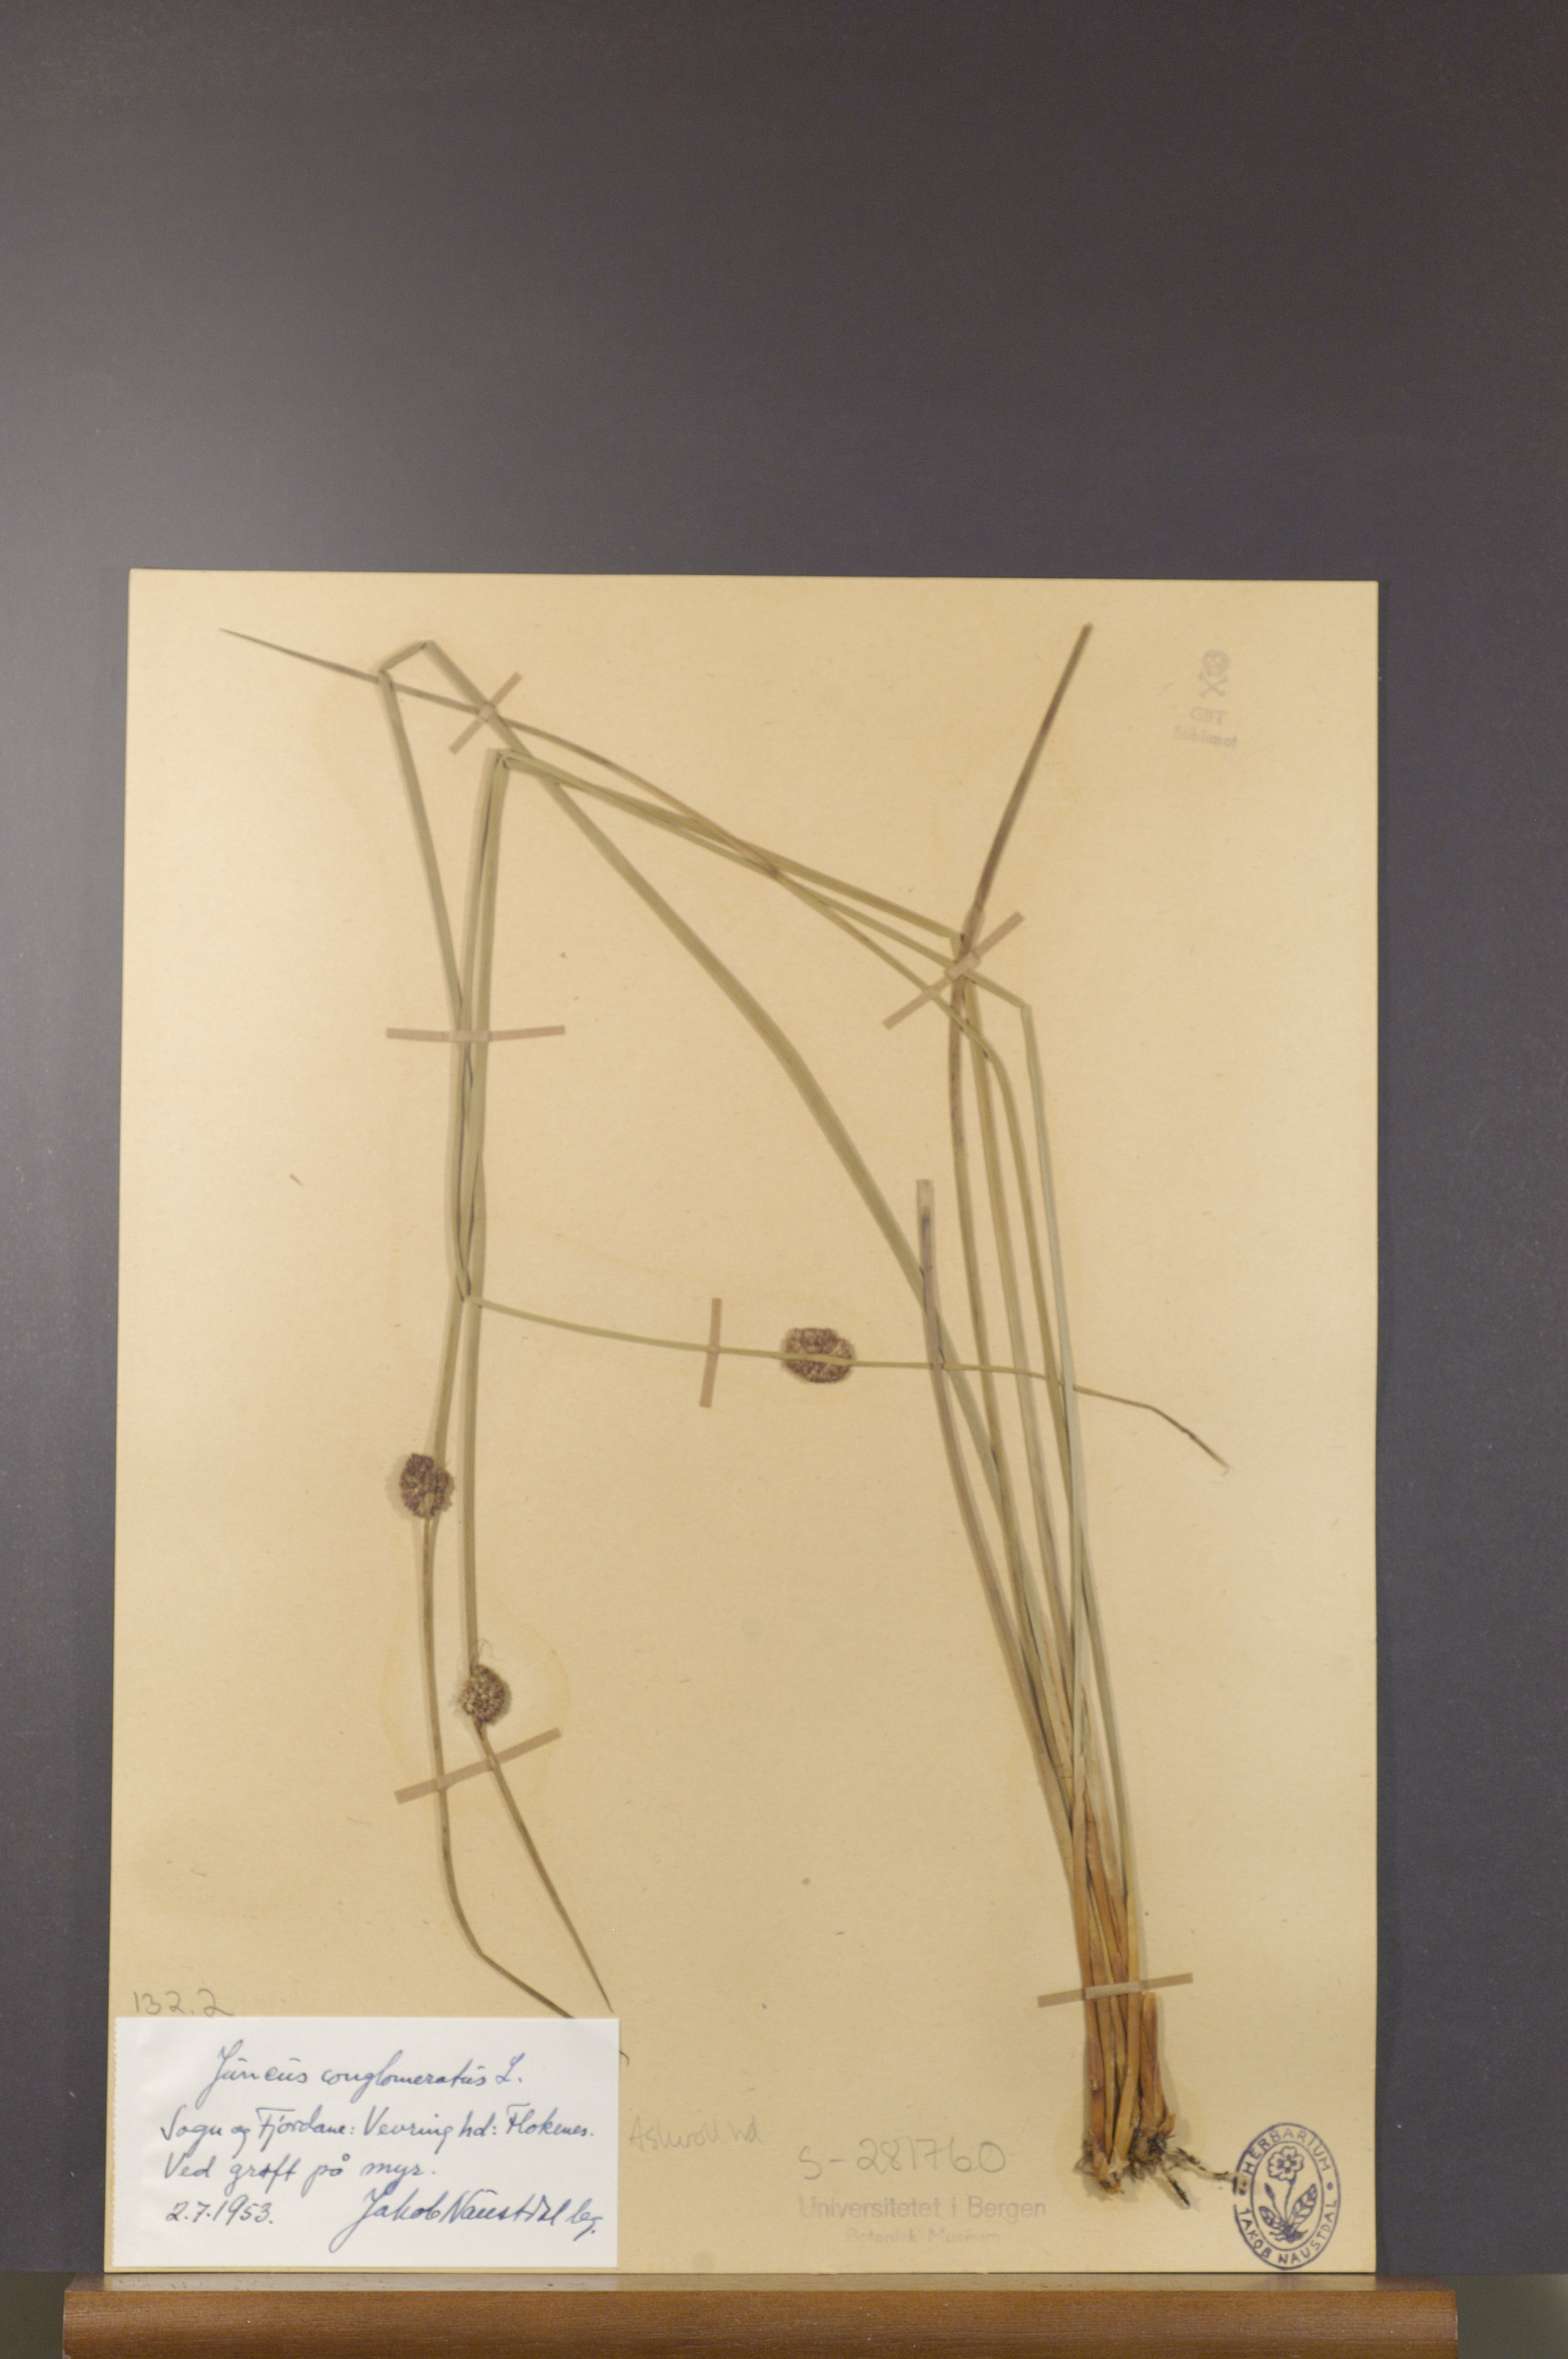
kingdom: Plantae
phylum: Tracheophyta
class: Liliopsida
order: Poales
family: Juncaceae
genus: Juncus
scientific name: Juncus conglomeratus
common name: Compact rush
